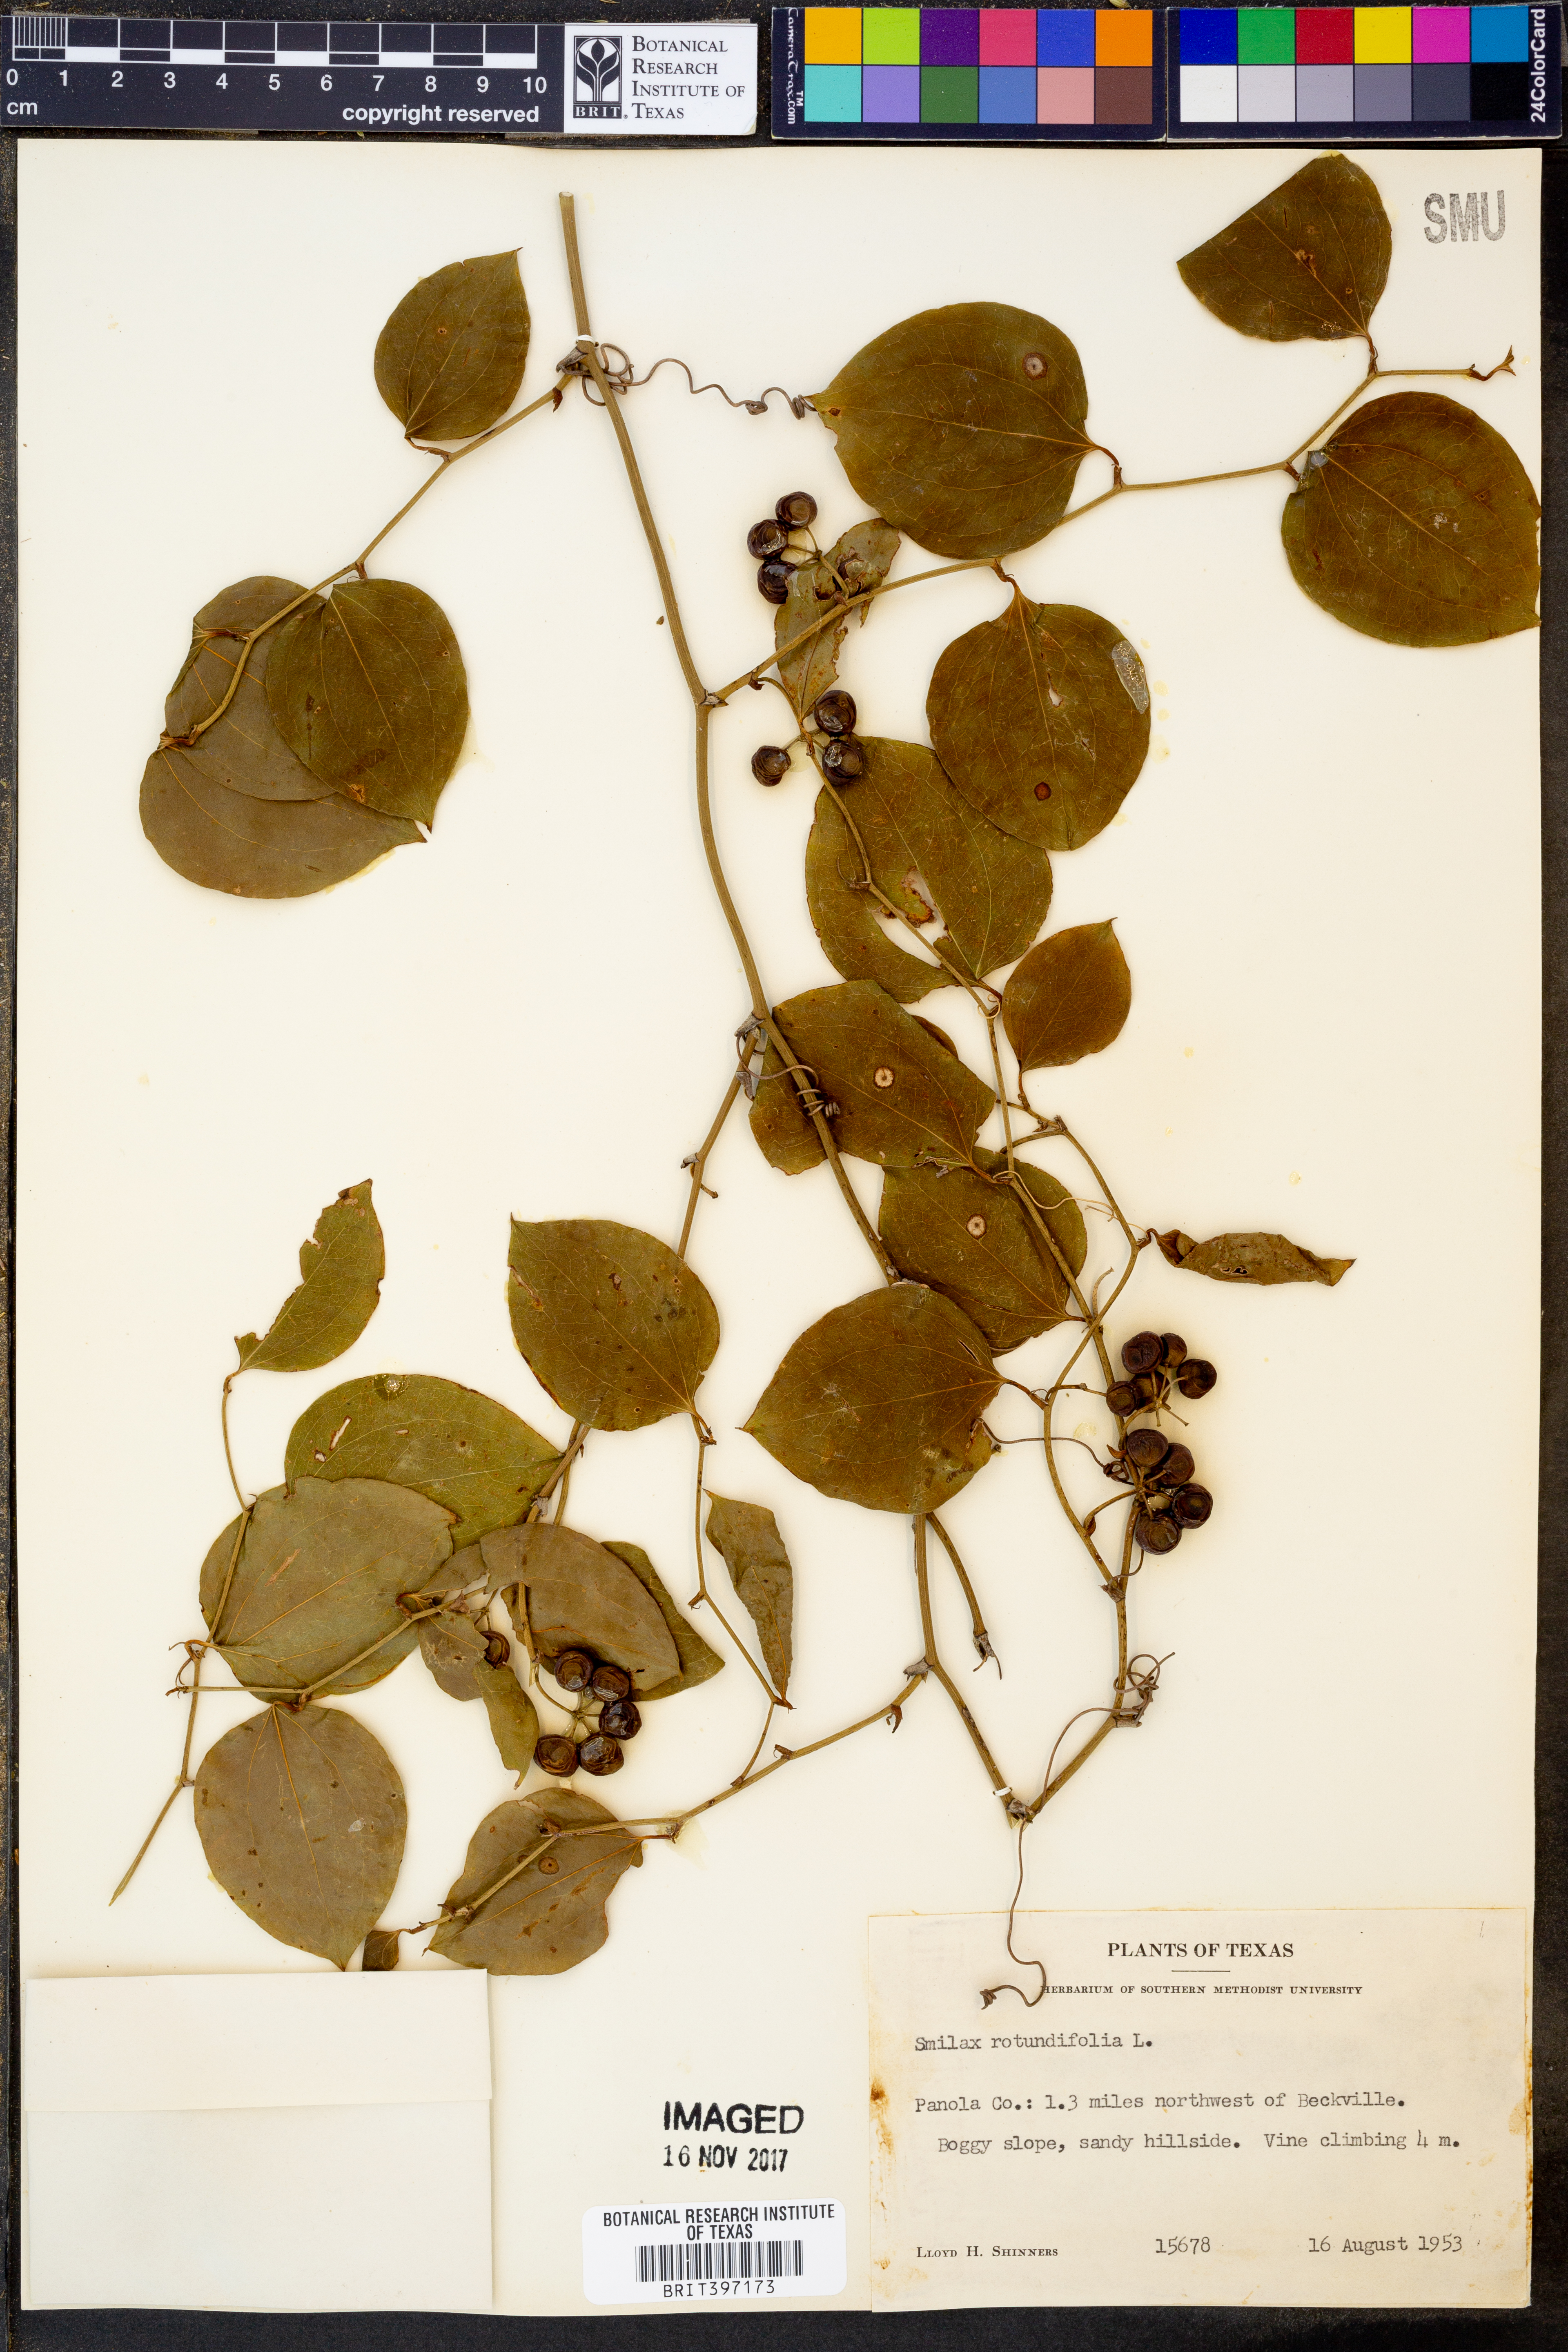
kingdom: Plantae
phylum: Tracheophyta
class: Liliopsida
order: Liliales
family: Smilacaceae
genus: Smilax
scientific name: Smilax rotundifolia
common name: Bullbriar
